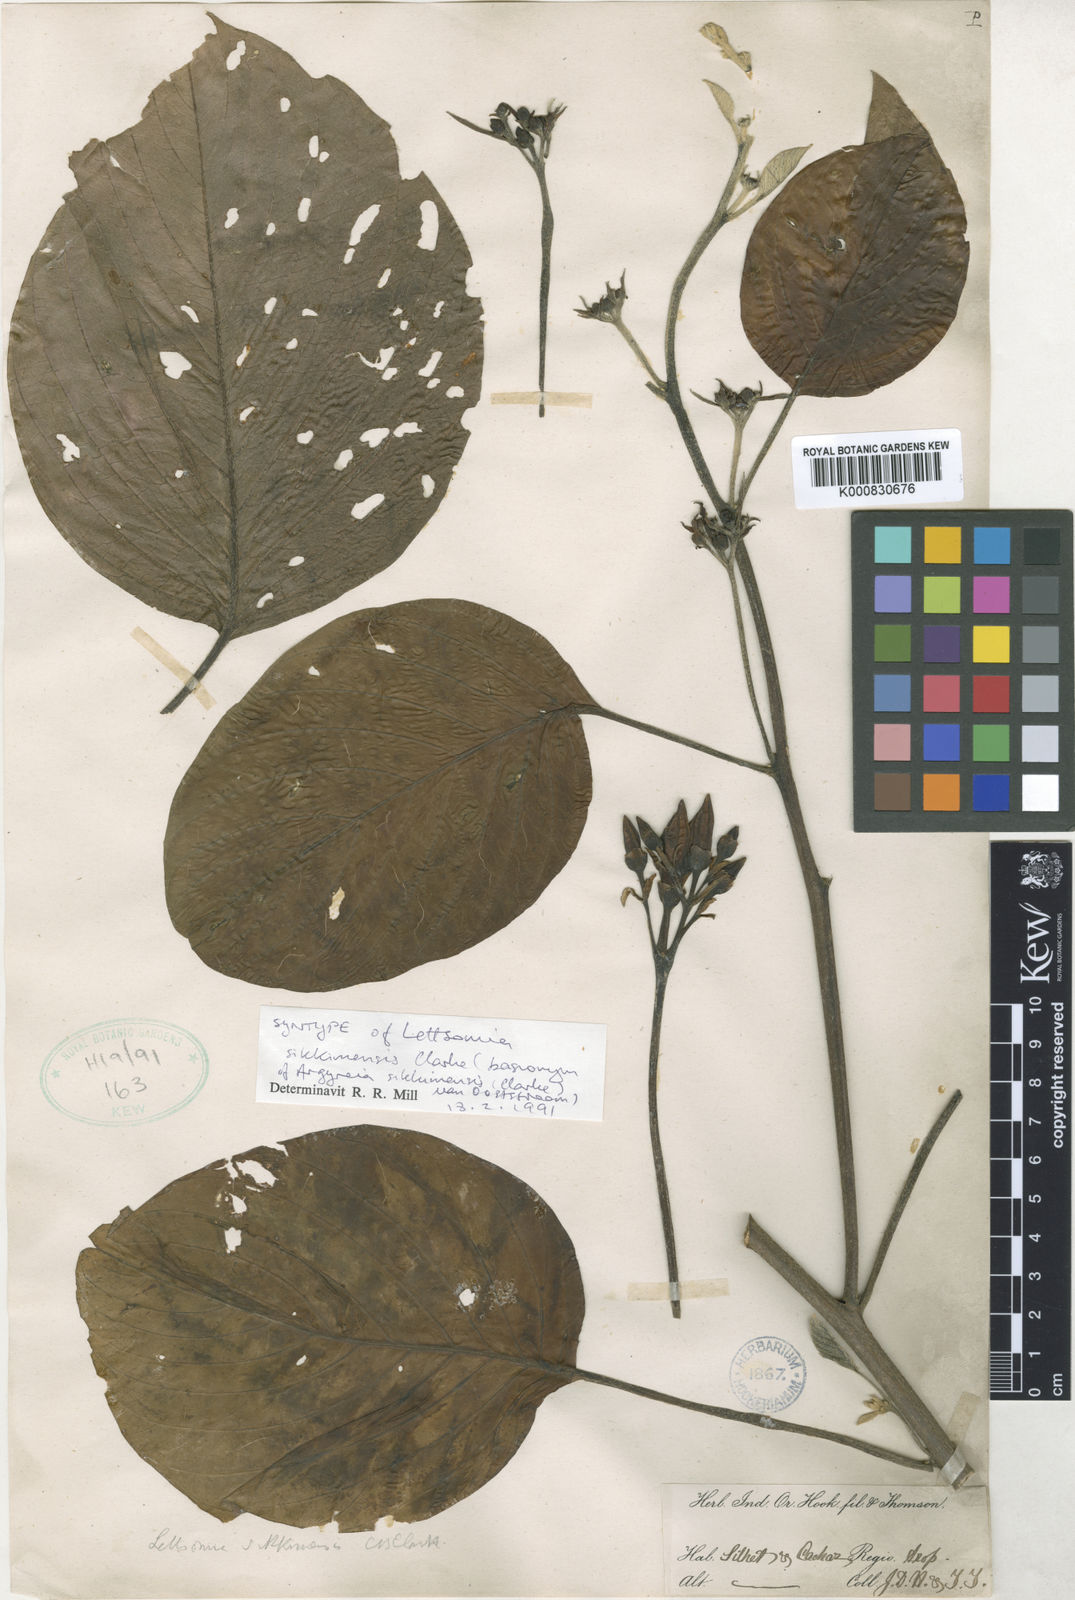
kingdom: Plantae
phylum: Tracheophyta
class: Magnoliopsida
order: Solanales
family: Convolvulaceae
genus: Argyreia
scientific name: Argyreia sikkimensis
